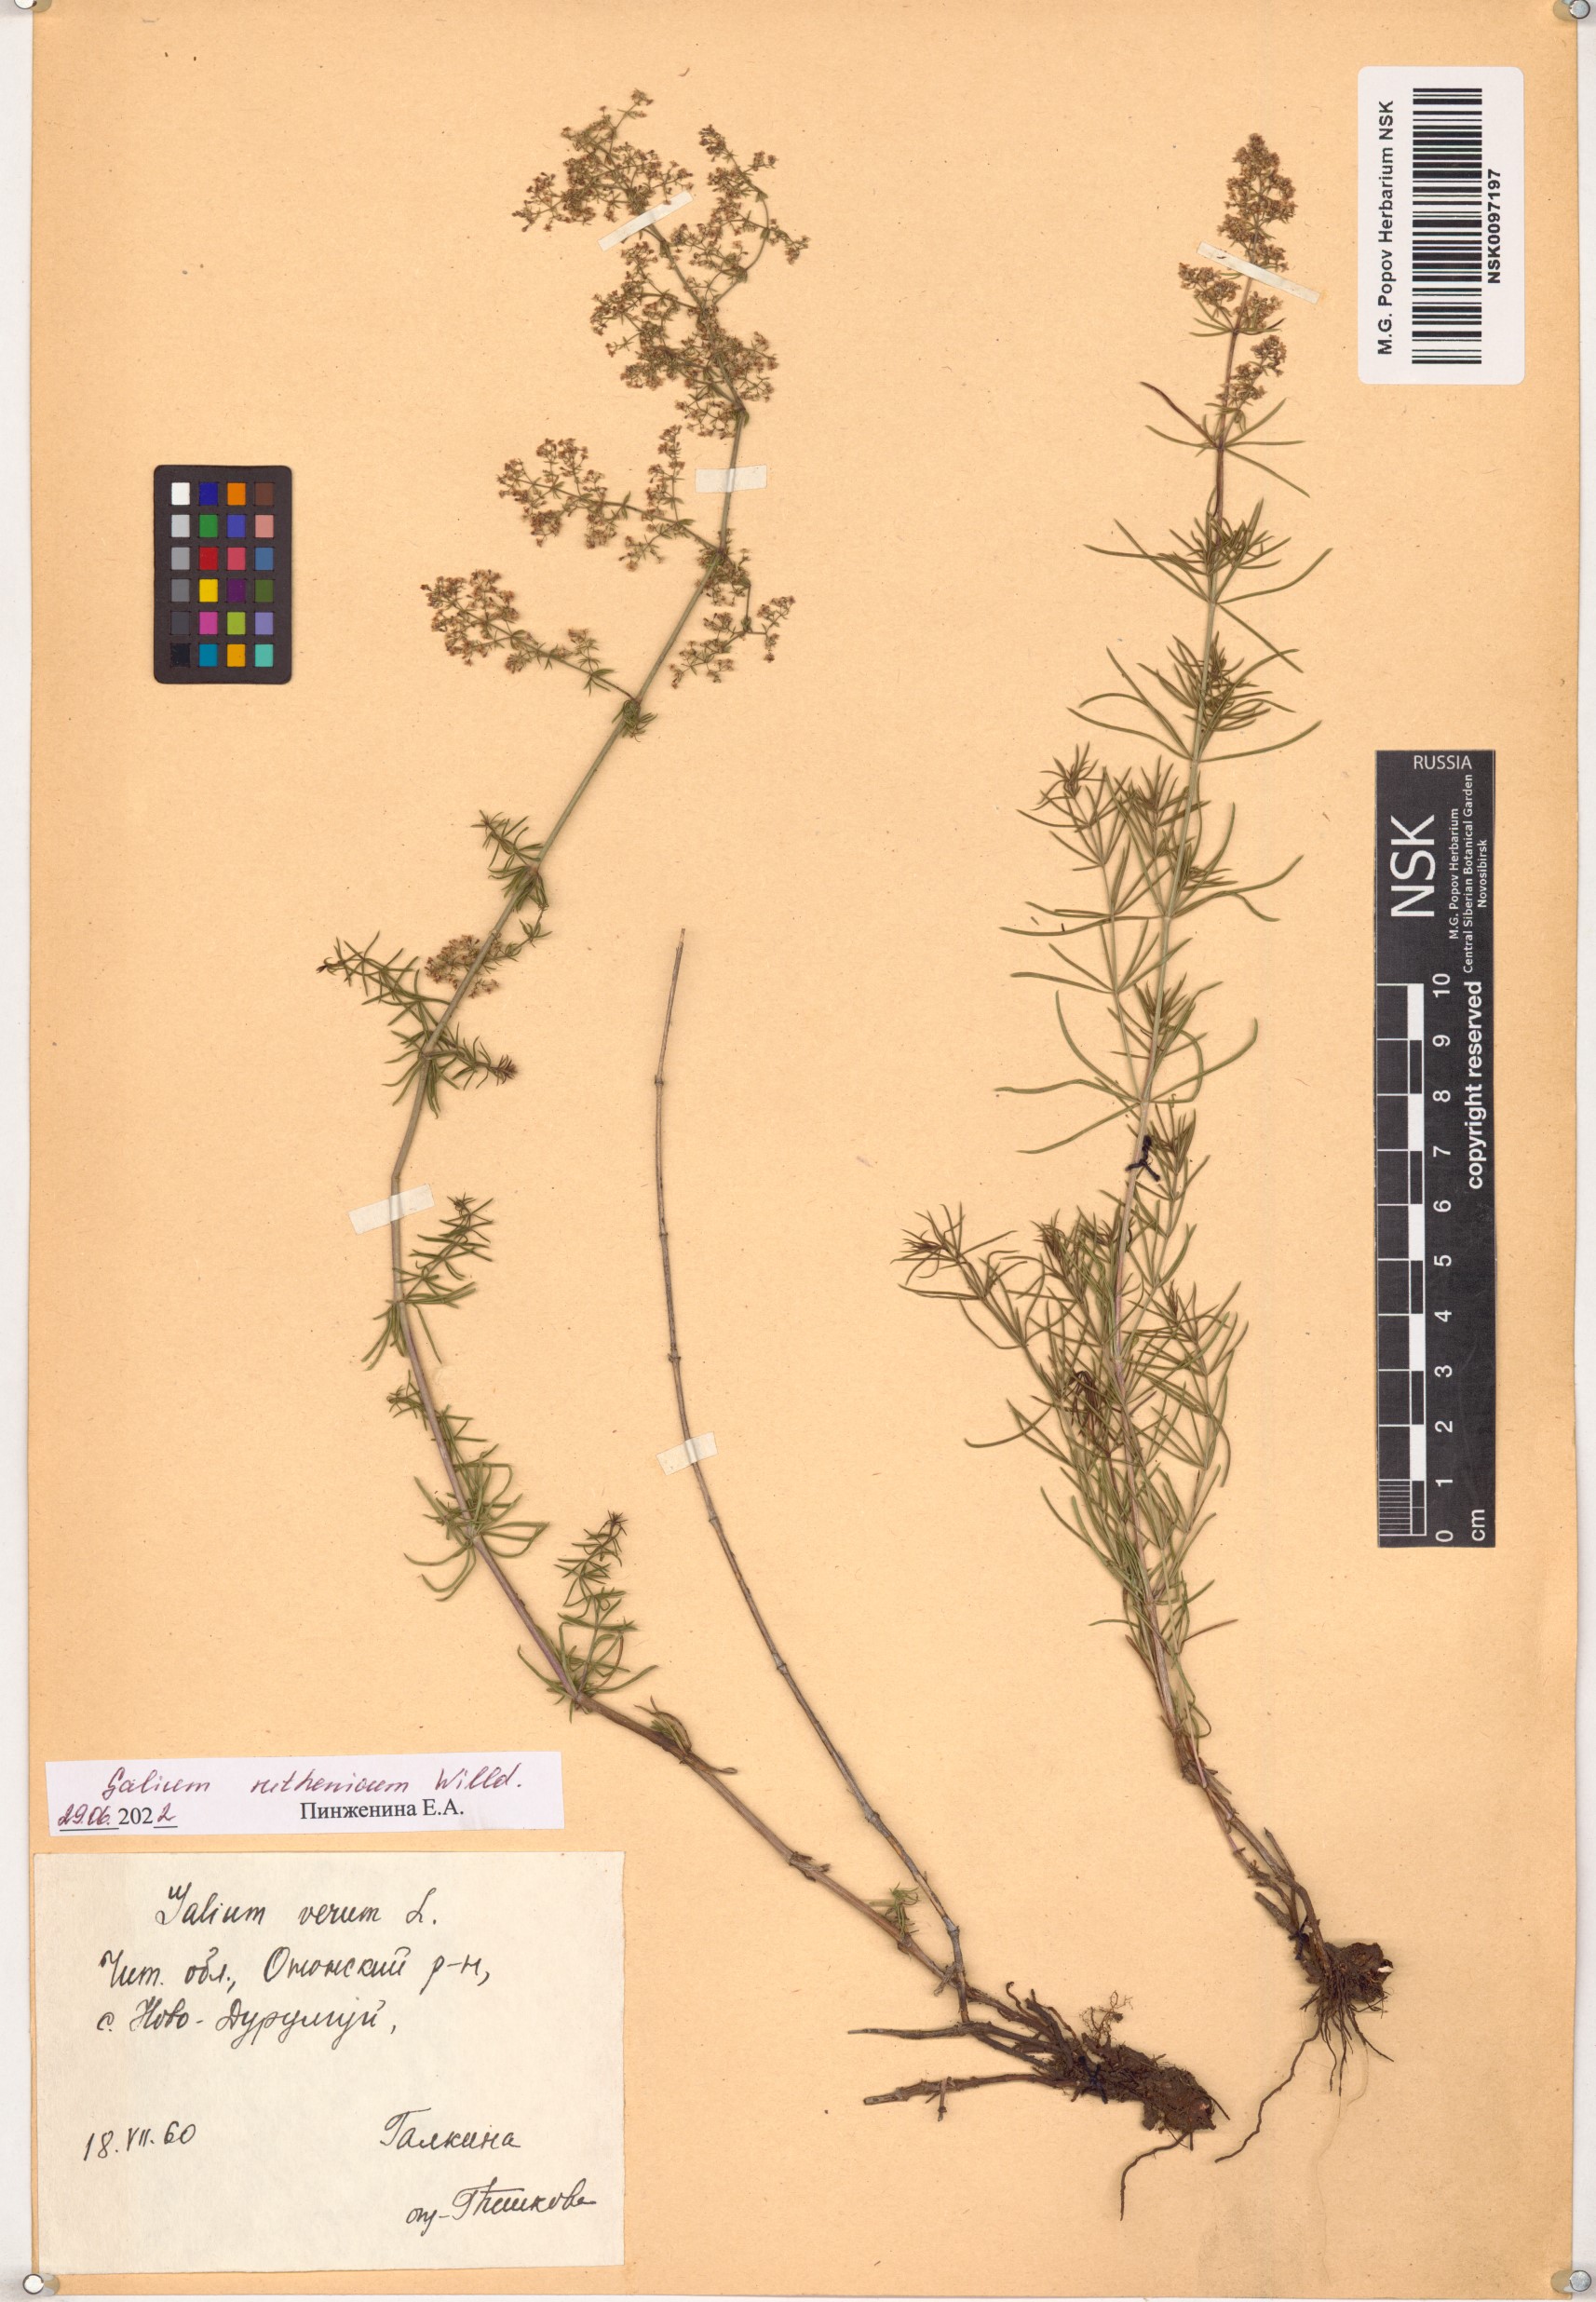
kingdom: Plantae
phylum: Tracheophyta
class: Magnoliopsida
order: Gentianales
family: Rubiaceae
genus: Galium
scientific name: Galium verum
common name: Lady's bedstraw
